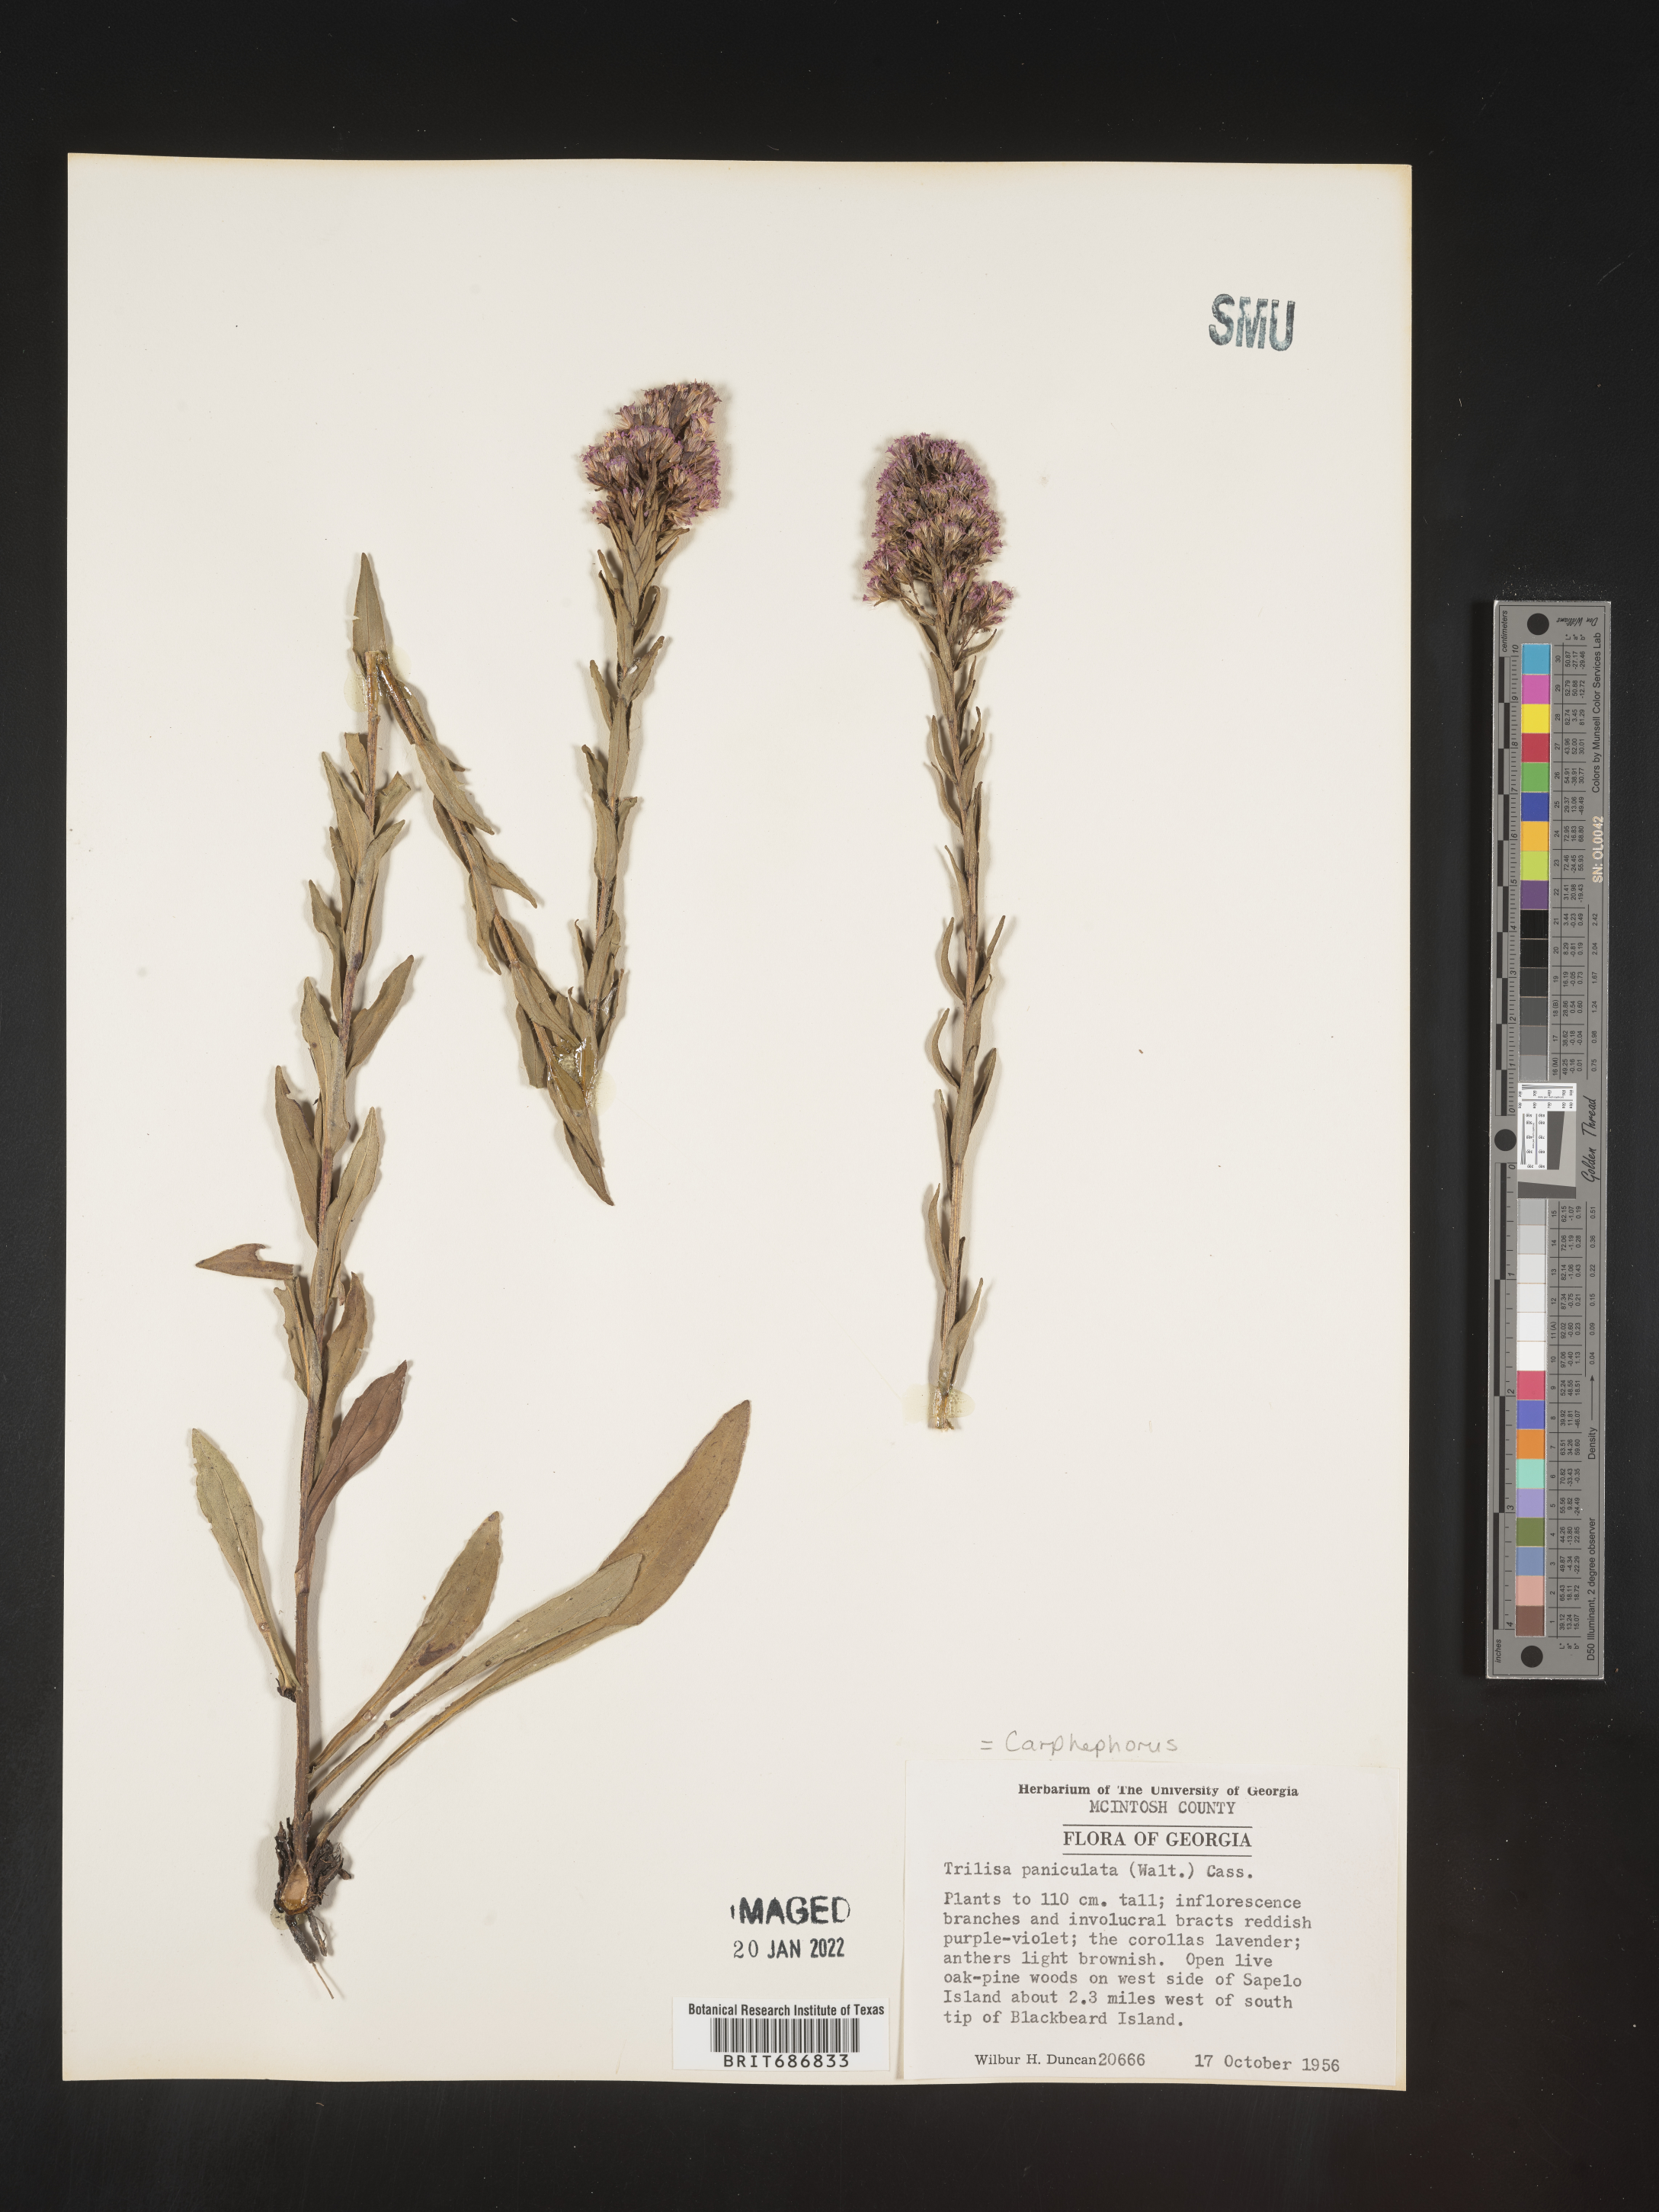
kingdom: Plantae
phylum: Tracheophyta
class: Magnoliopsida
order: Asterales
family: Asteraceae
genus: Carphephorus
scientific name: Carphephorus paniculatus
